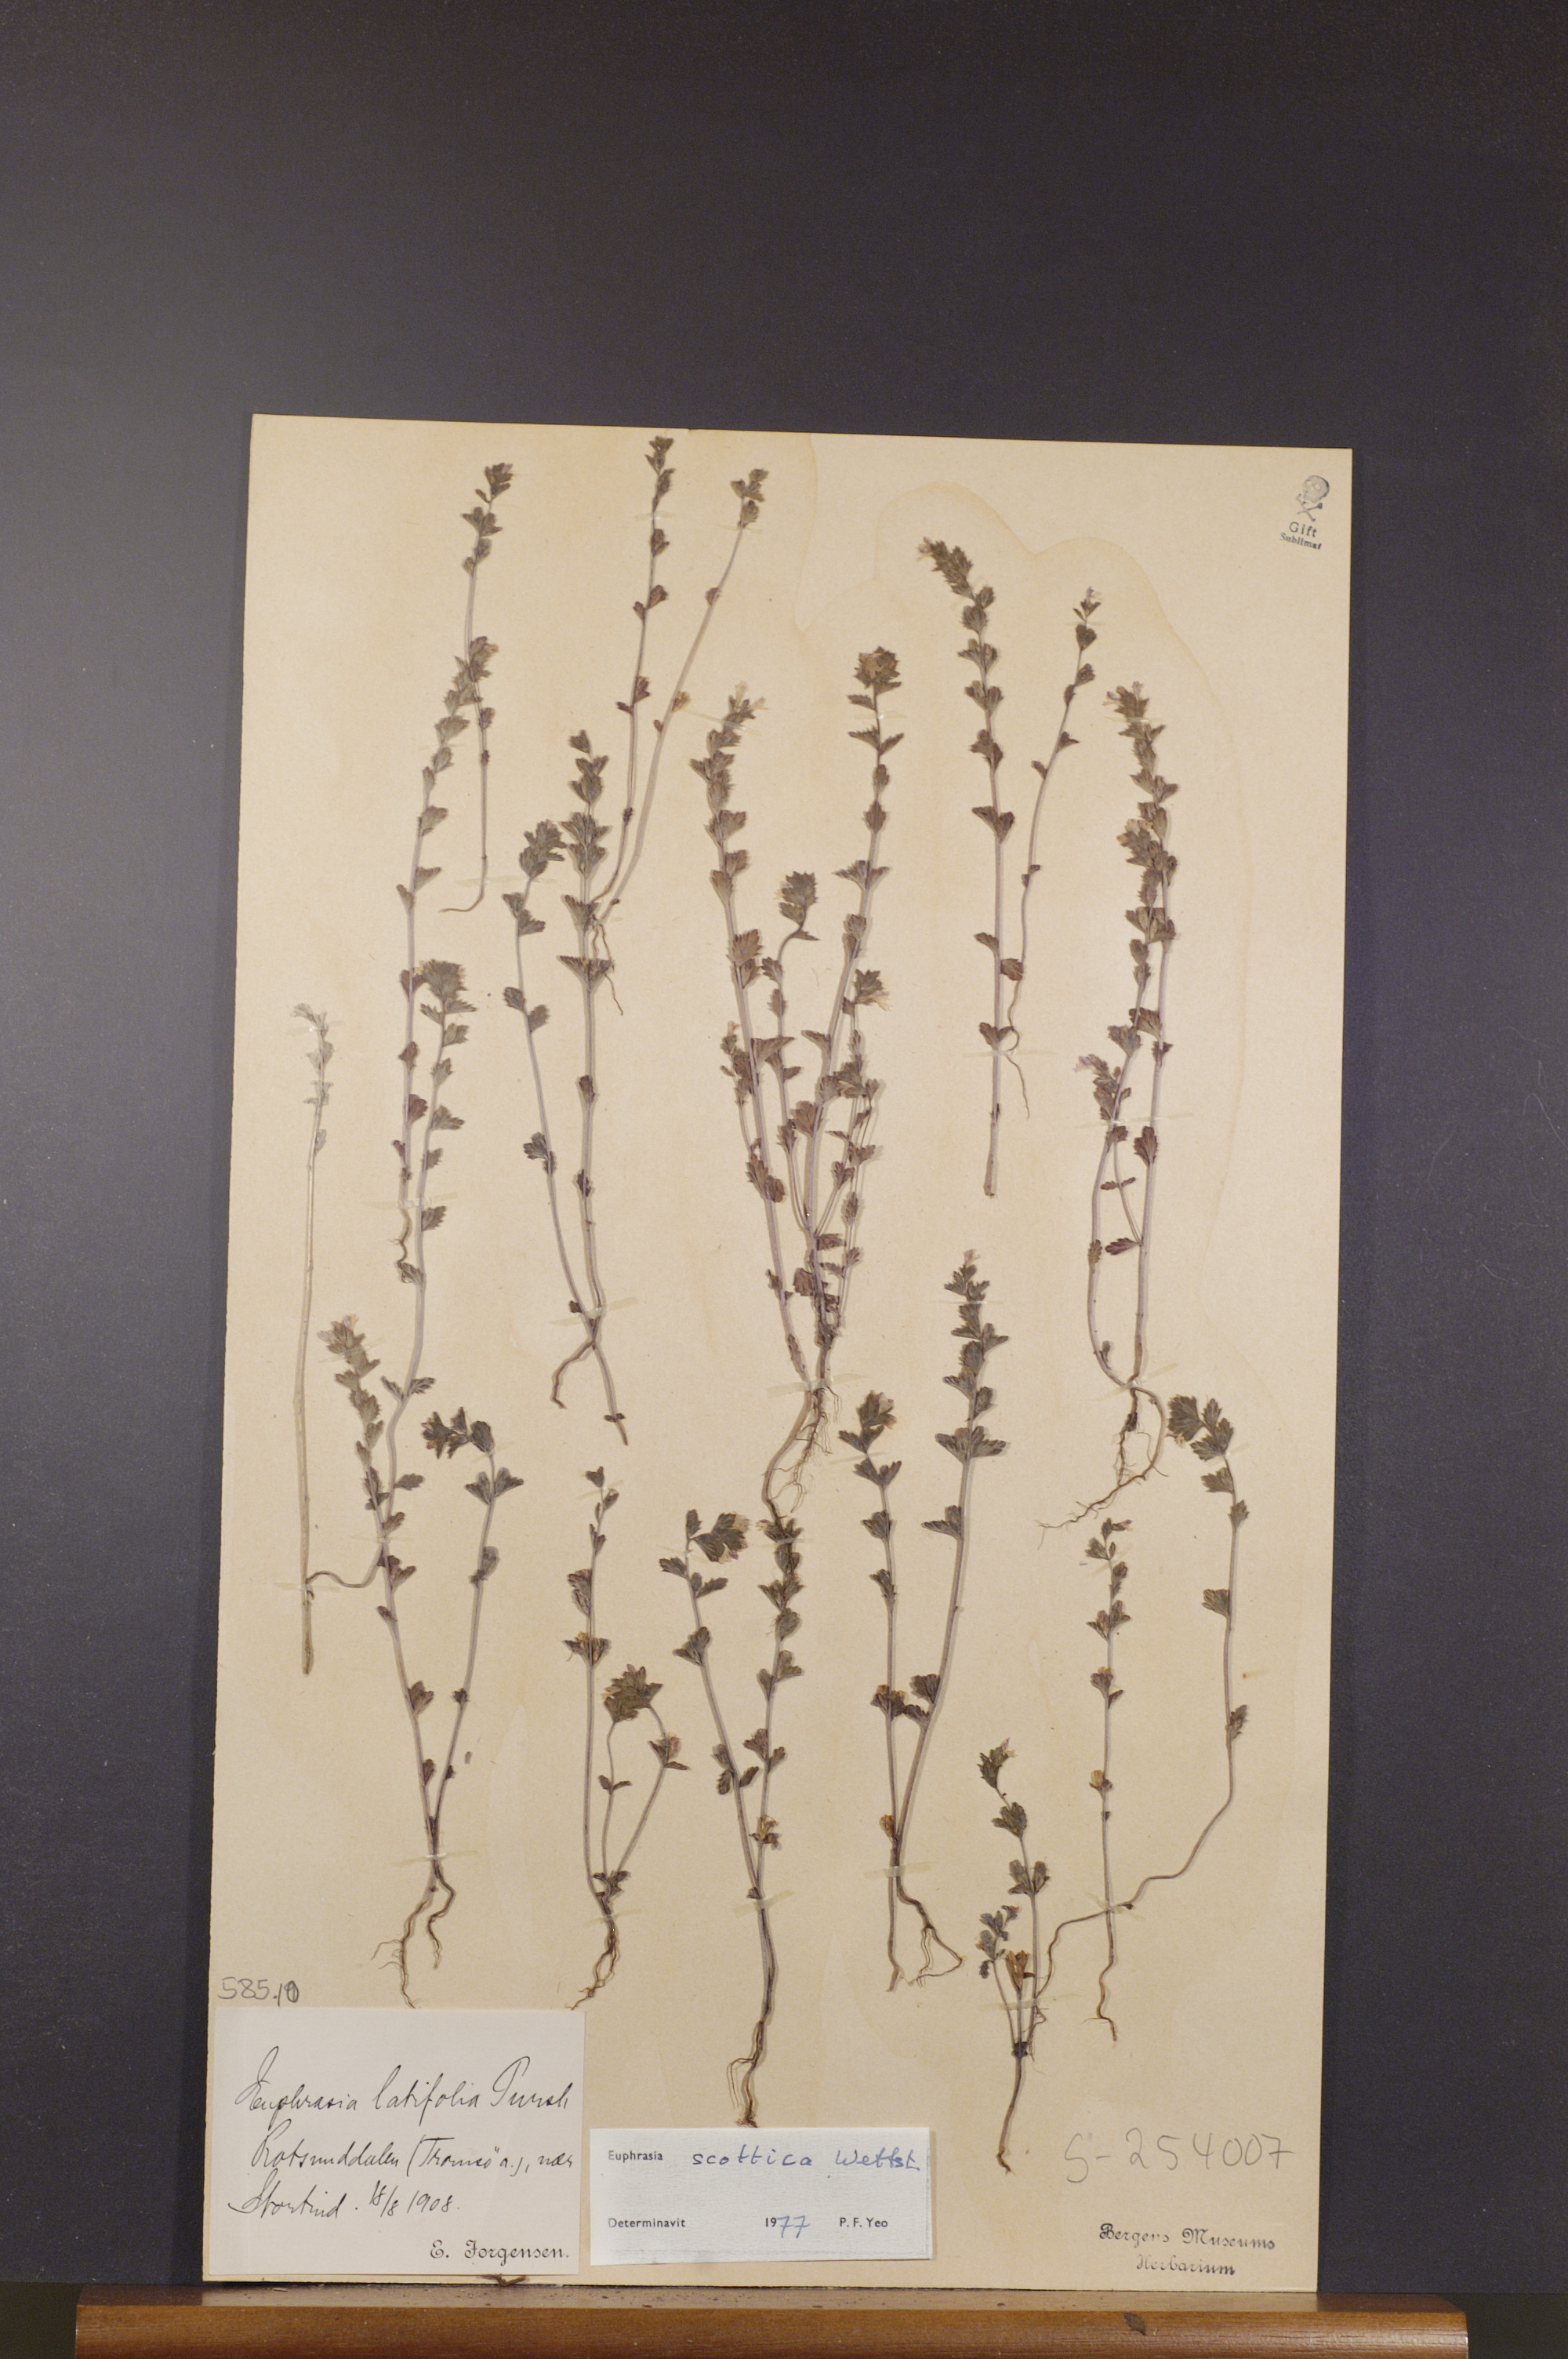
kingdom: Plantae
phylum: Tracheophyta
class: Magnoliopsida
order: Lamiales
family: Orobanchaceae
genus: Euphrasia
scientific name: Euphrasia scottica
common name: Slender scottish eyebright
